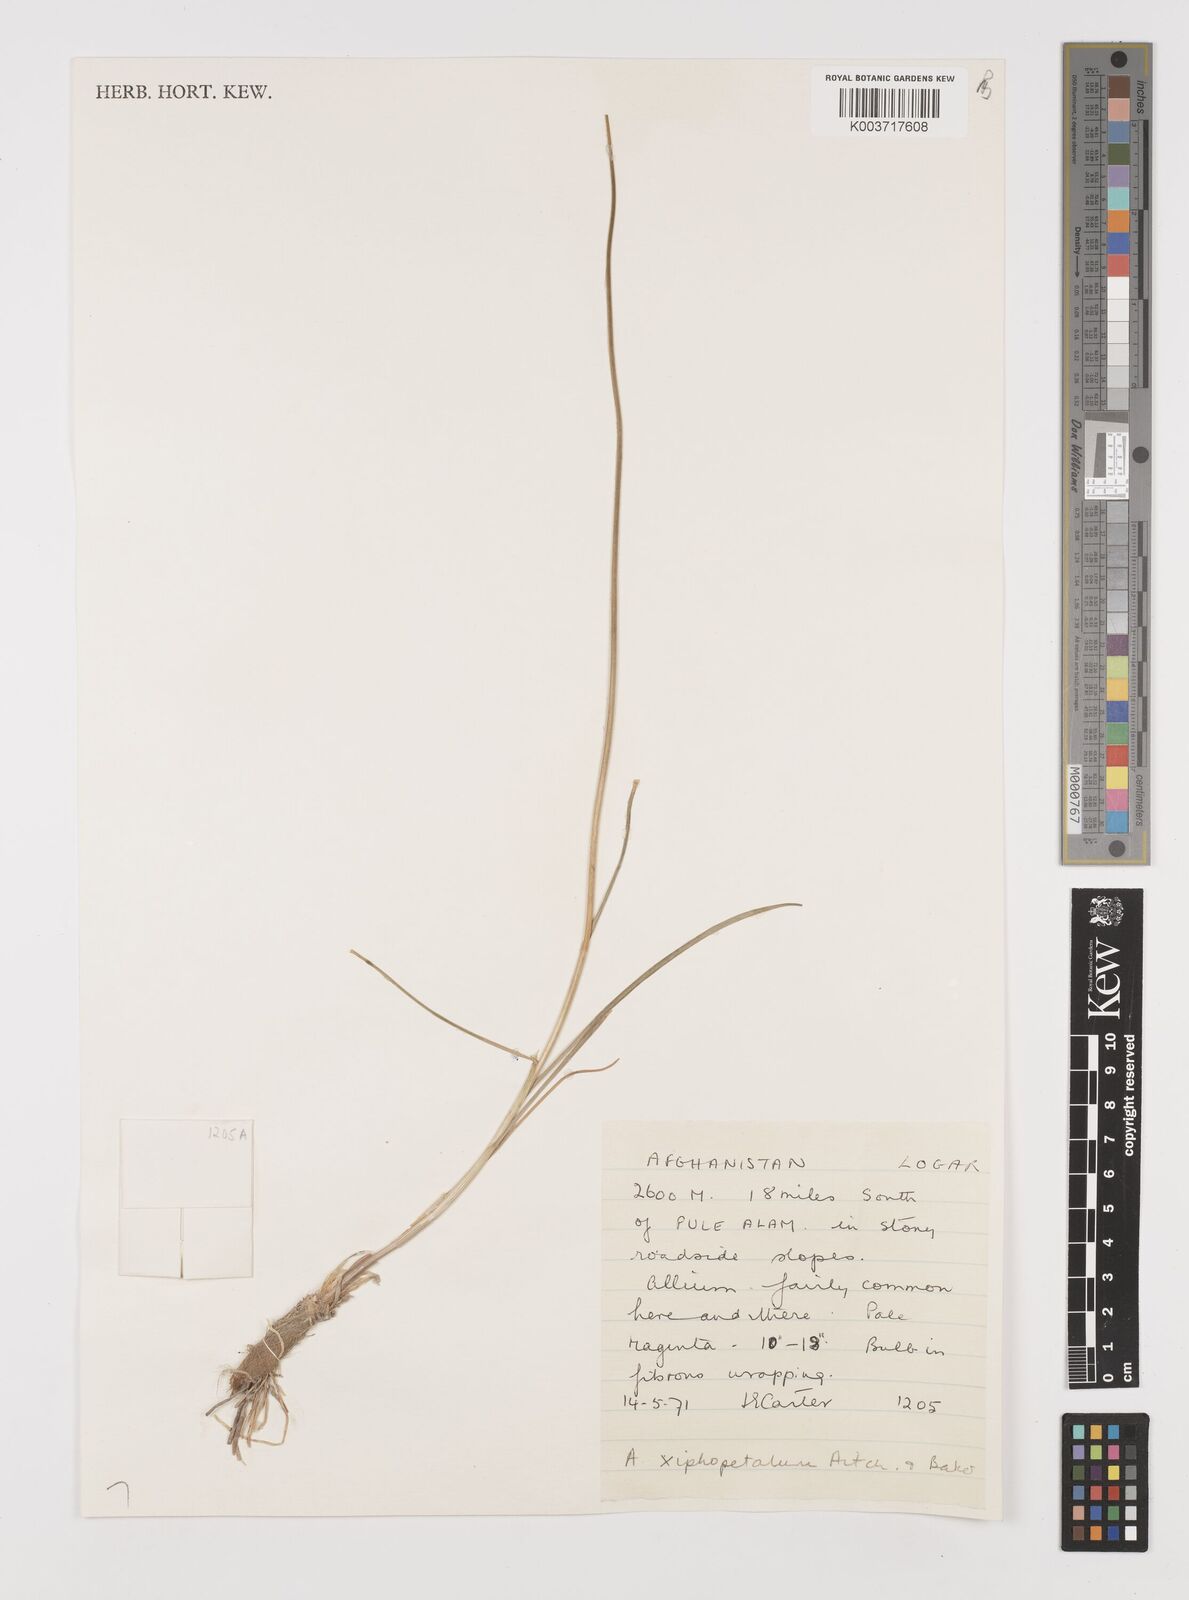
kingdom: Plantae
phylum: Tracheophyta
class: Liliopsida
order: Asparagales
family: Amaryllidaceae
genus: Allium
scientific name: Allium xiphopetalum
